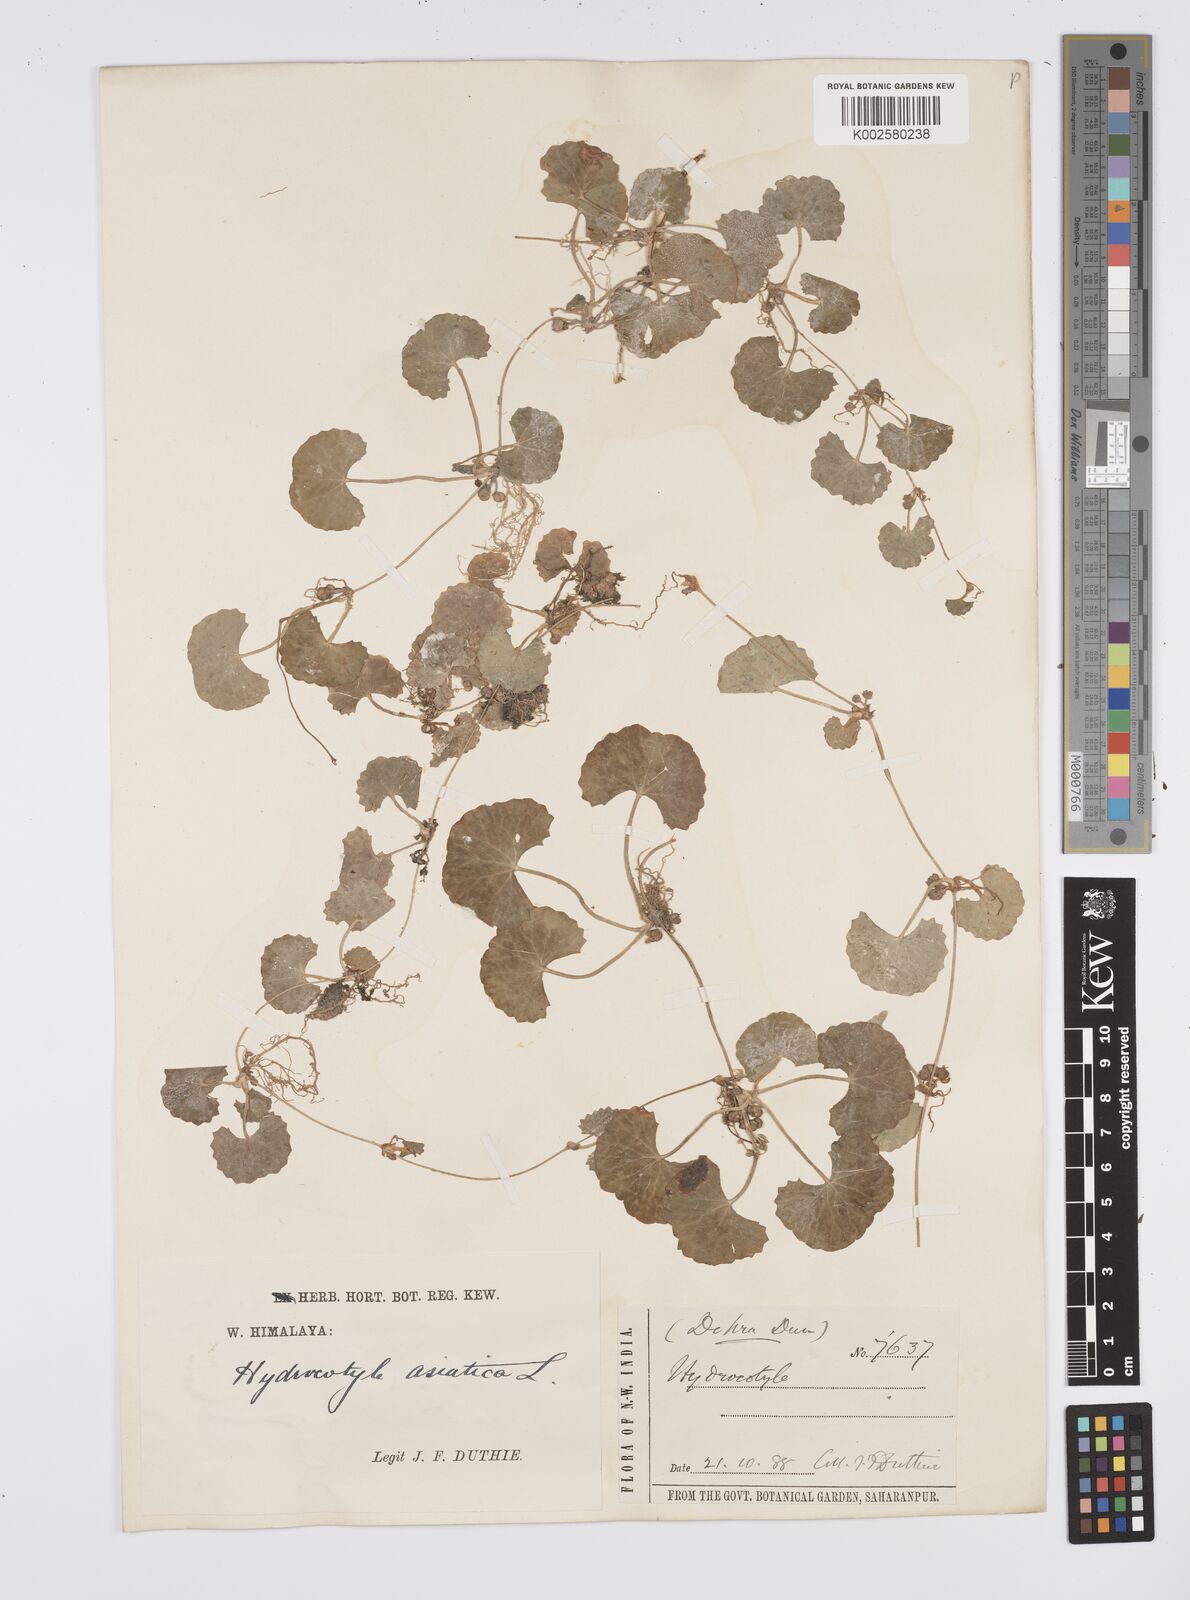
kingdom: Plantae
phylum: Tracheophyta
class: Magnoliopsida
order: Apiales
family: Apiaceae
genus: Centella
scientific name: Centella asiatica
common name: Spadeleaf
